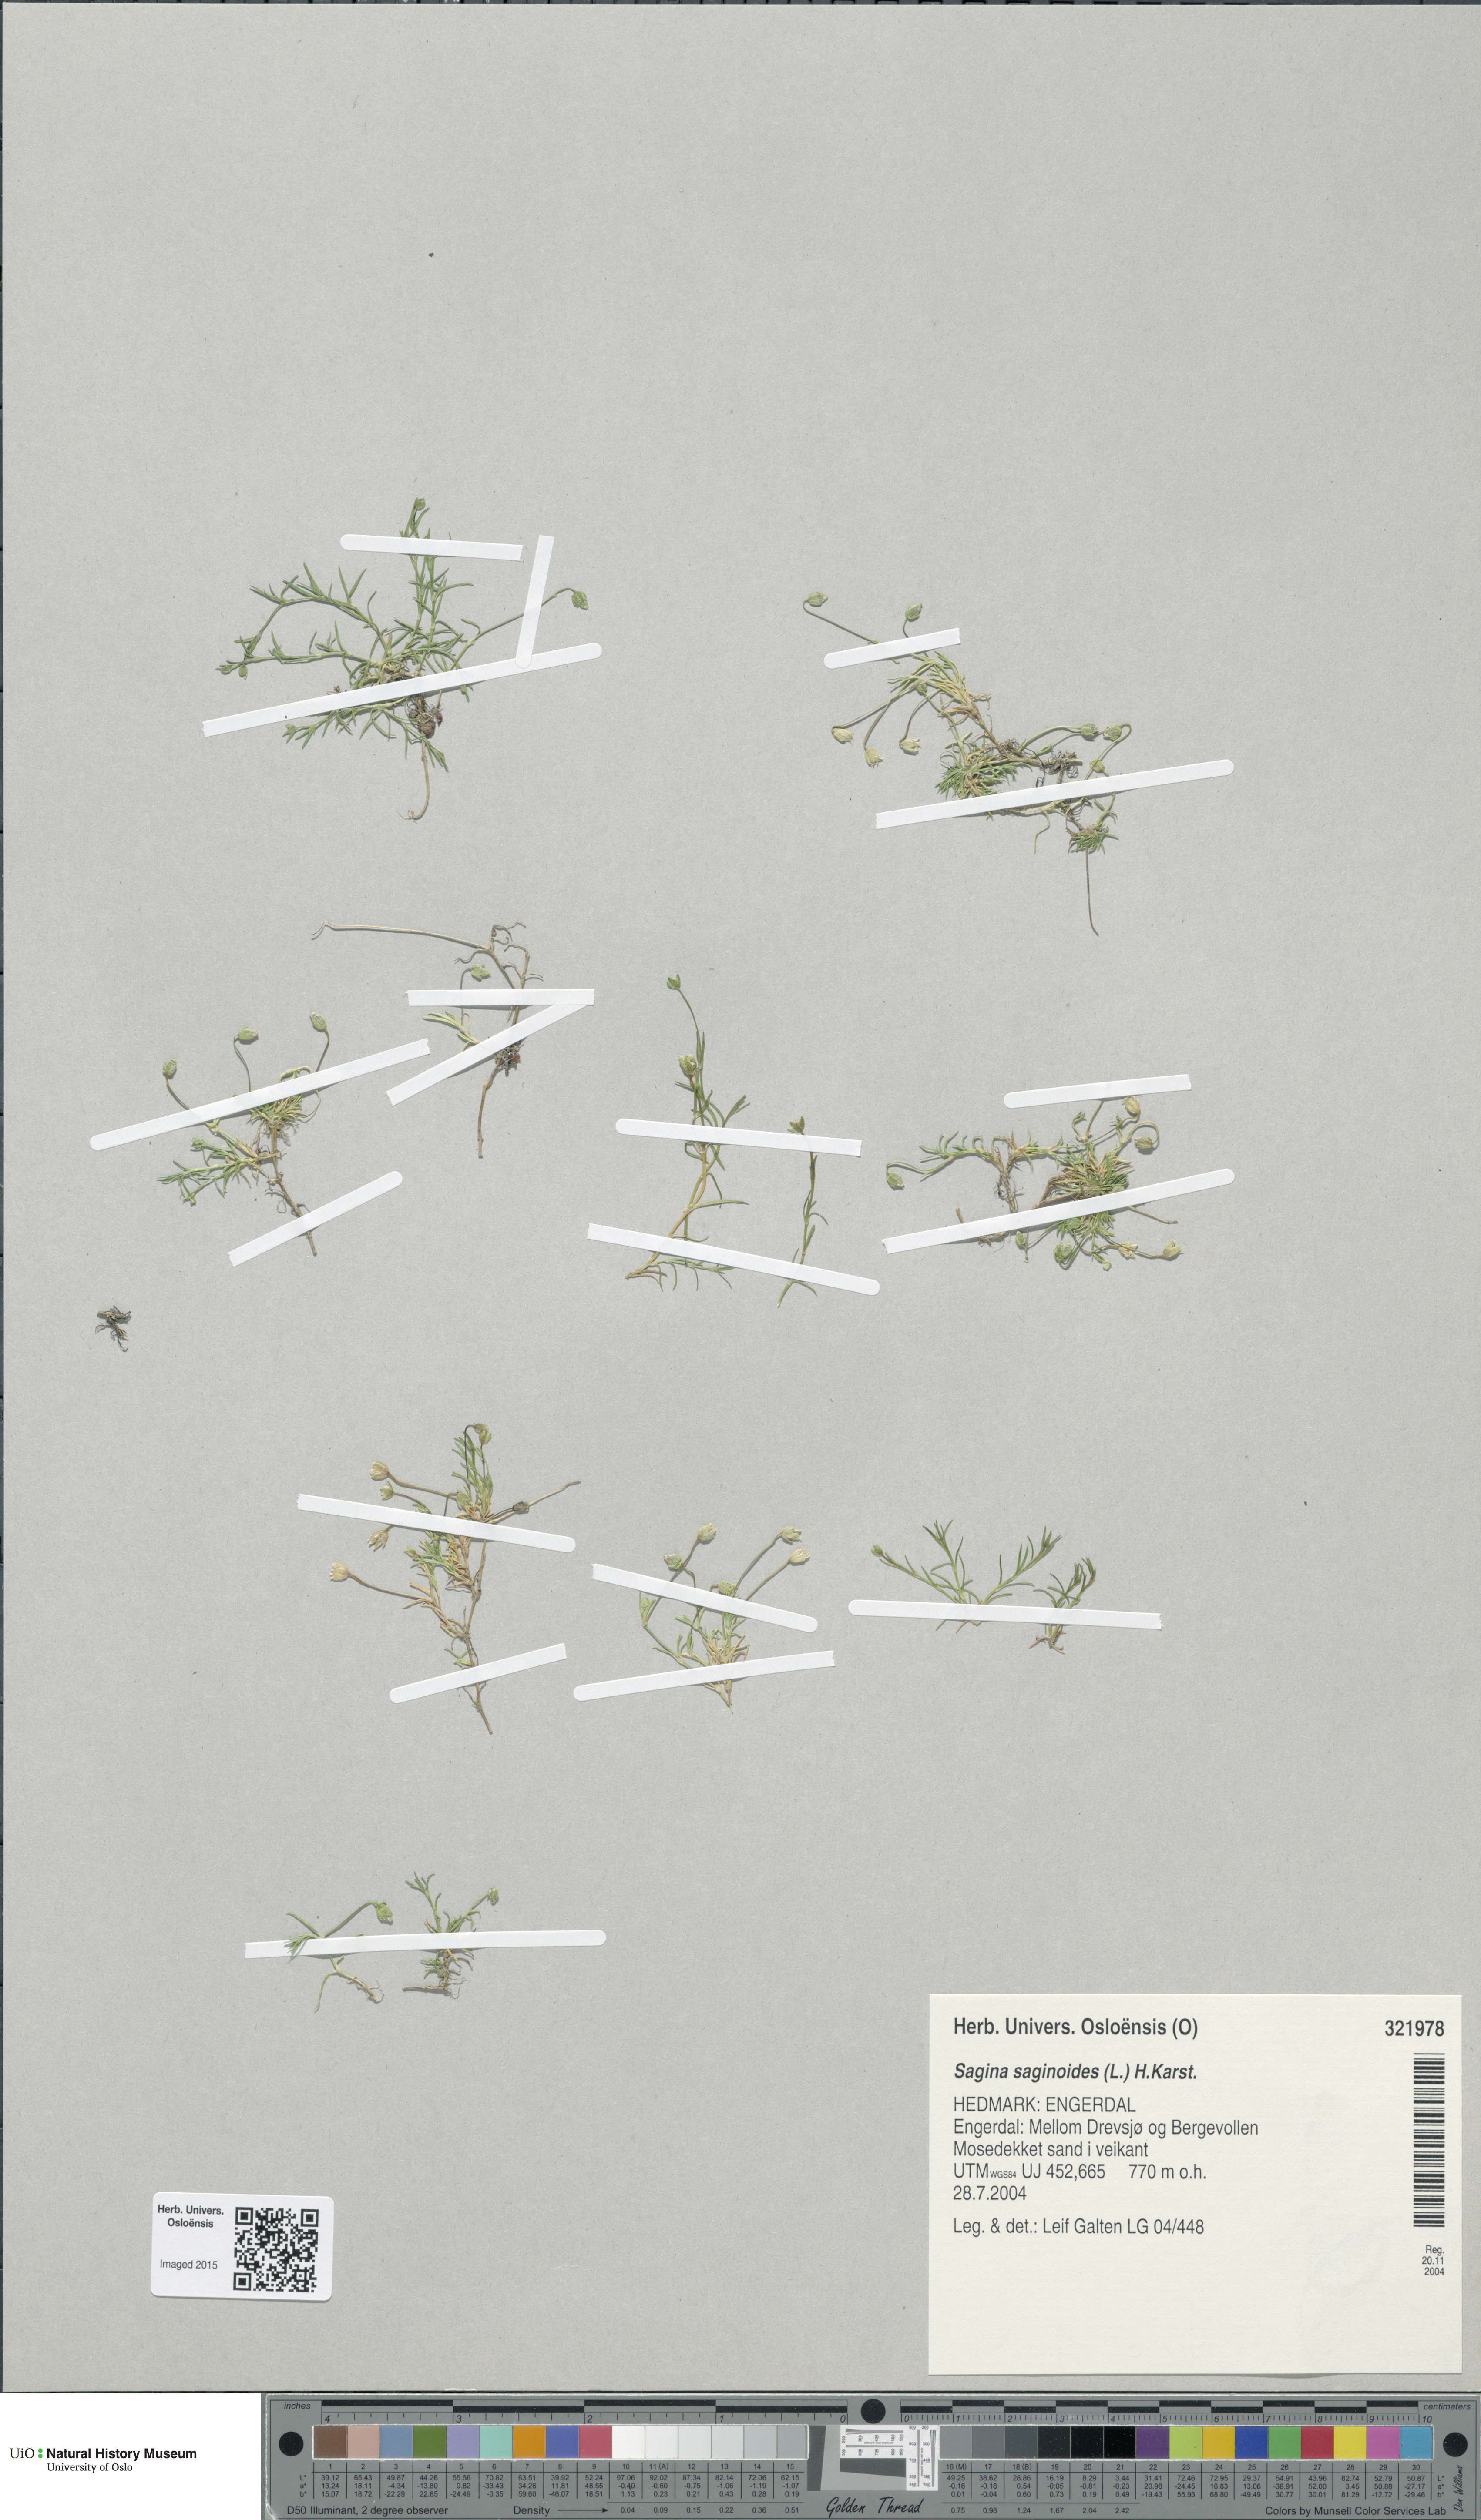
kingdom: Plantae
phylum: Tracheophyta
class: Magnoliopsida
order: Caryophyllales
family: Caryophyllaceae
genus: Sagina
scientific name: Sagina saginoides
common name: Alpine pearlwort
